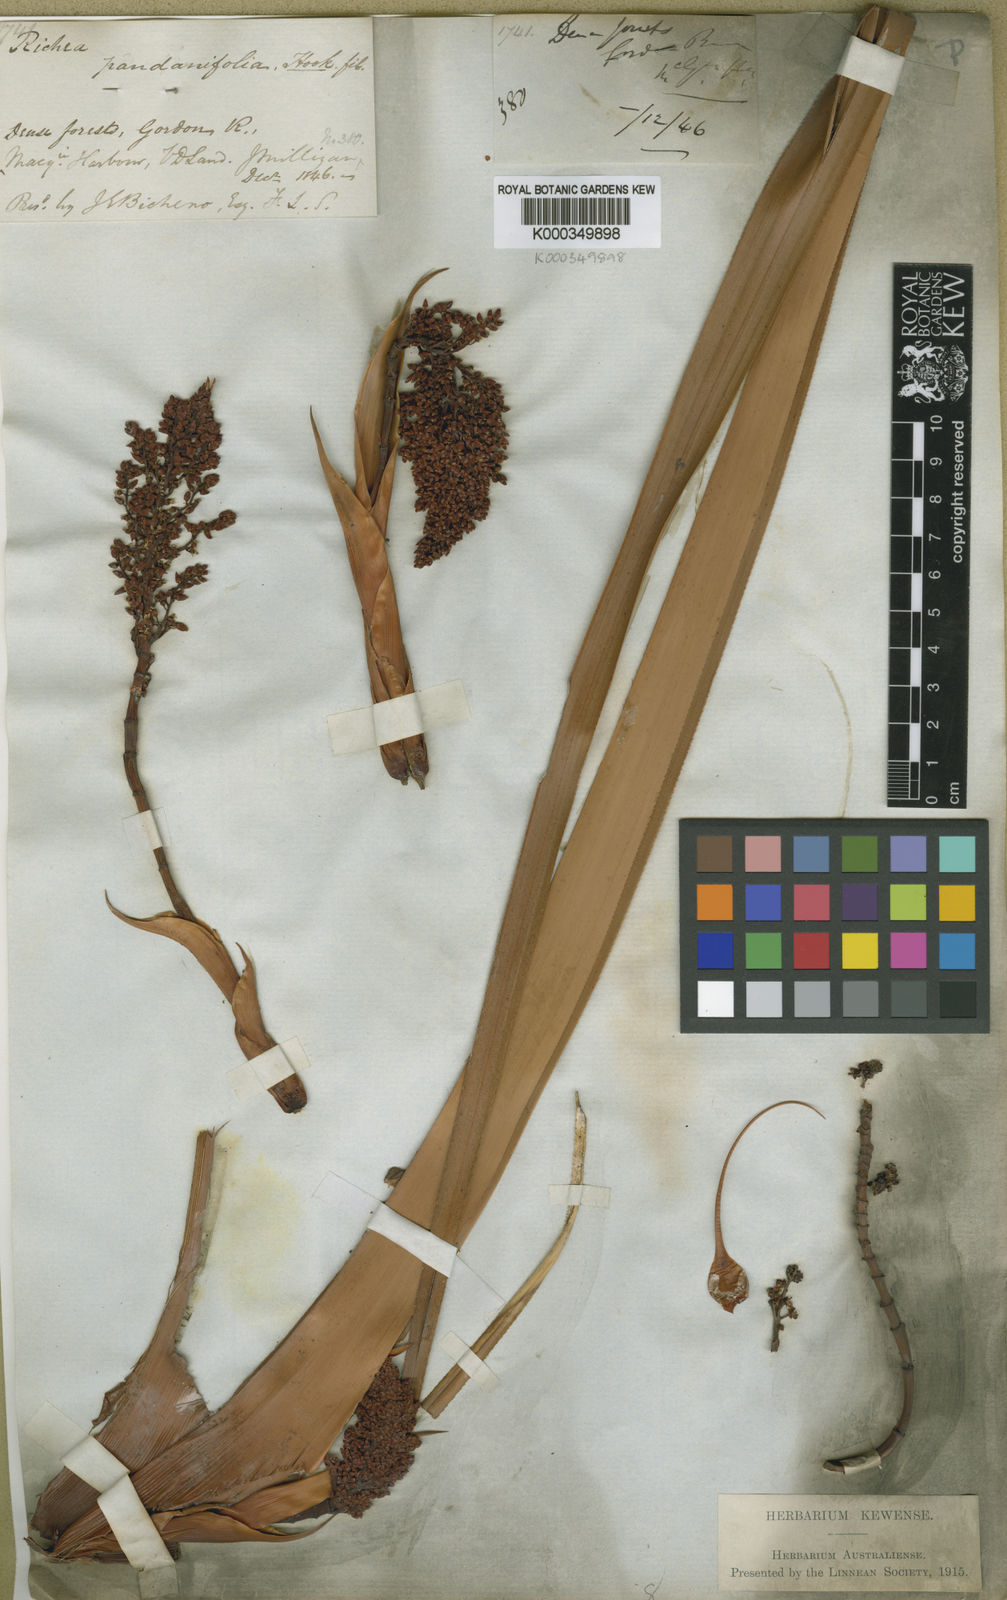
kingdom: Plantae
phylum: Tracheophyta
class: Magnoliopsida
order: Ericales
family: Ericaceae
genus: Dracophyllum
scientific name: Dracophyllum pandanifolium
